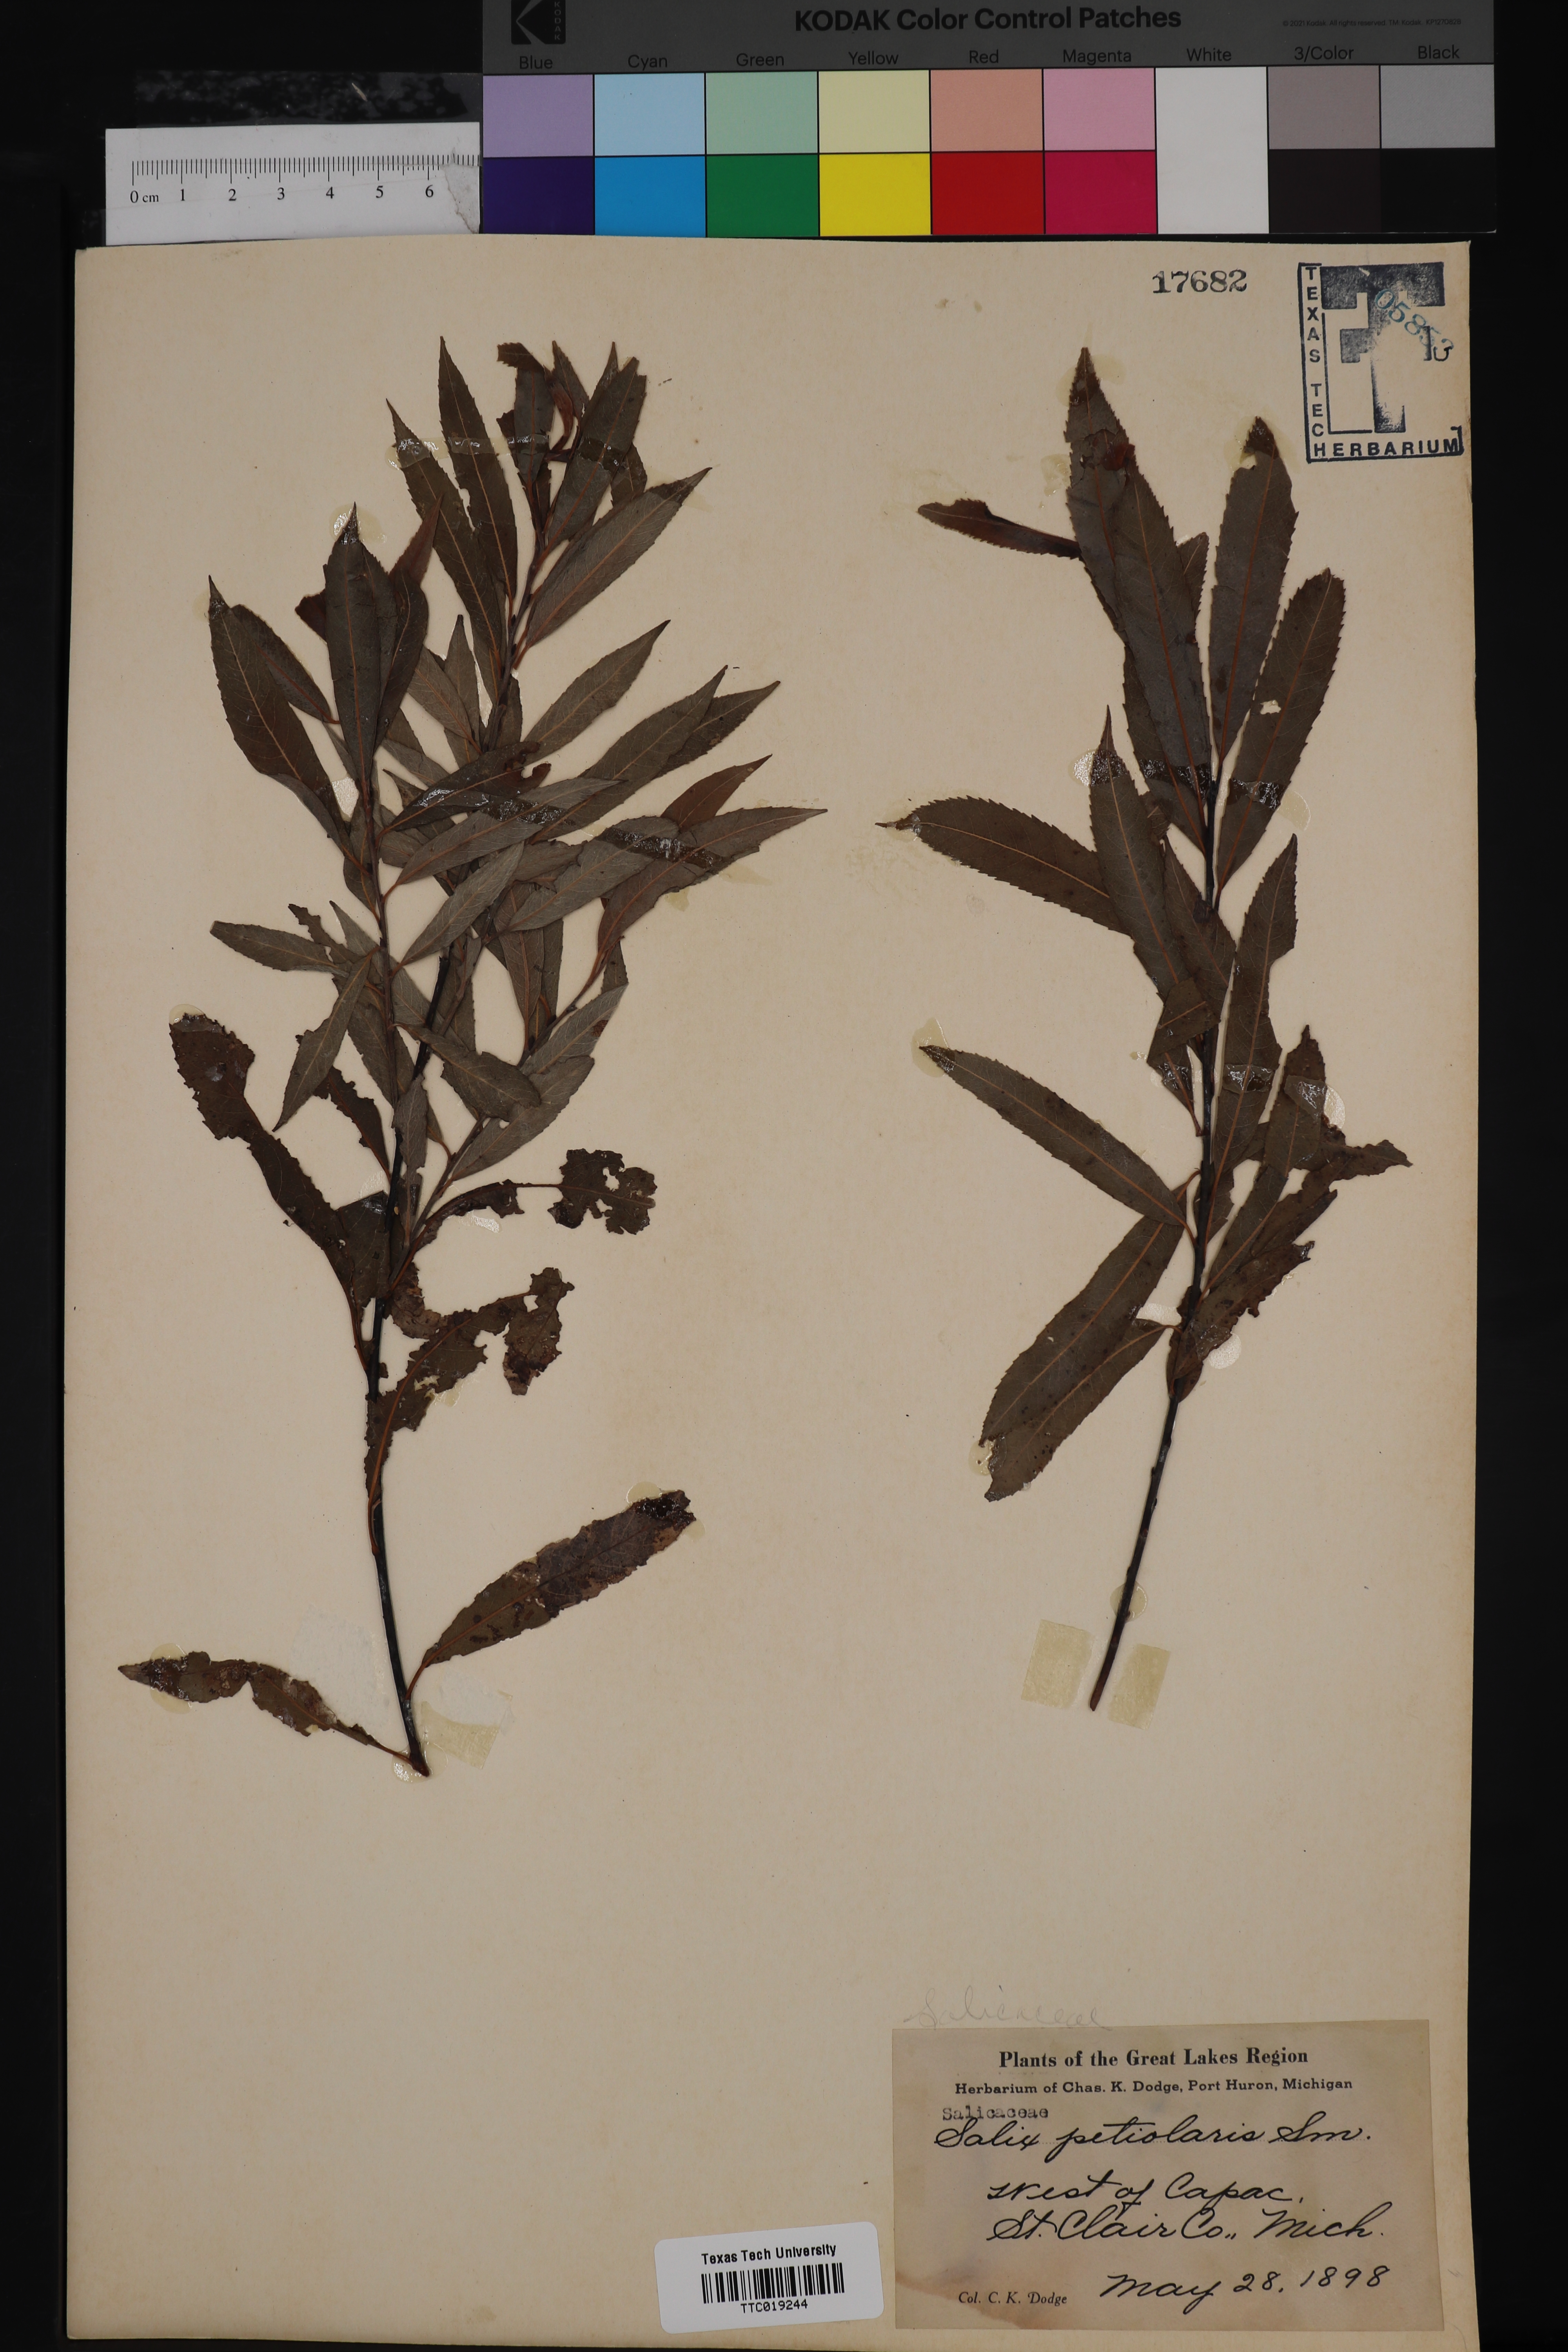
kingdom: Plantae
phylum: Tracheophyta
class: Magnoliopsida
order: Malpighiales
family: Salicaceae
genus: Salix
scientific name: Salix petiolaris
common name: Slender willow
